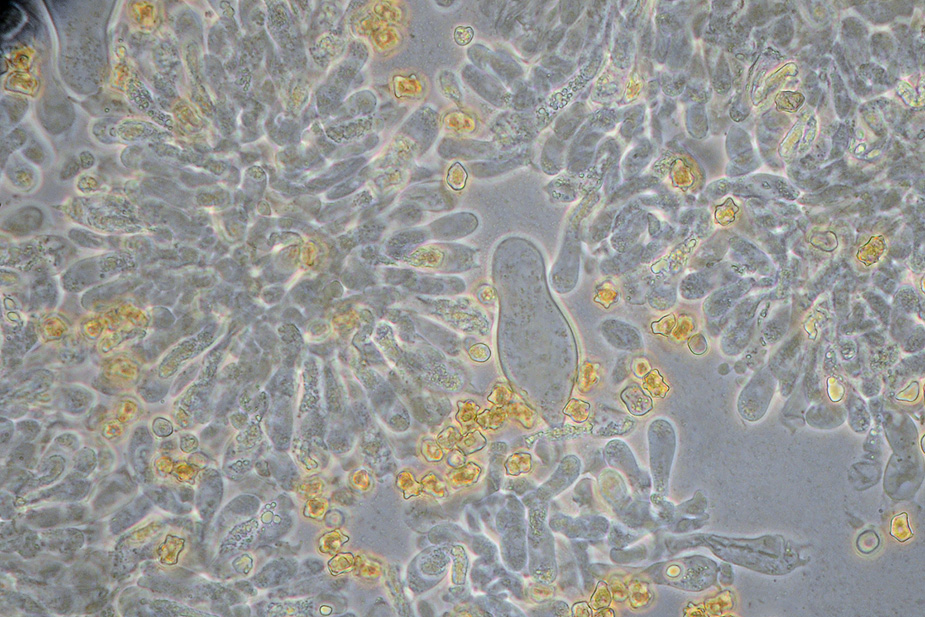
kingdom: Fungi
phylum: Basidiomycota
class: Agaricomycetes
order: Agaricales
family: Inocybaceae
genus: Inocybe
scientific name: Inocybe stellatospora
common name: spidsskællet trævlhat
